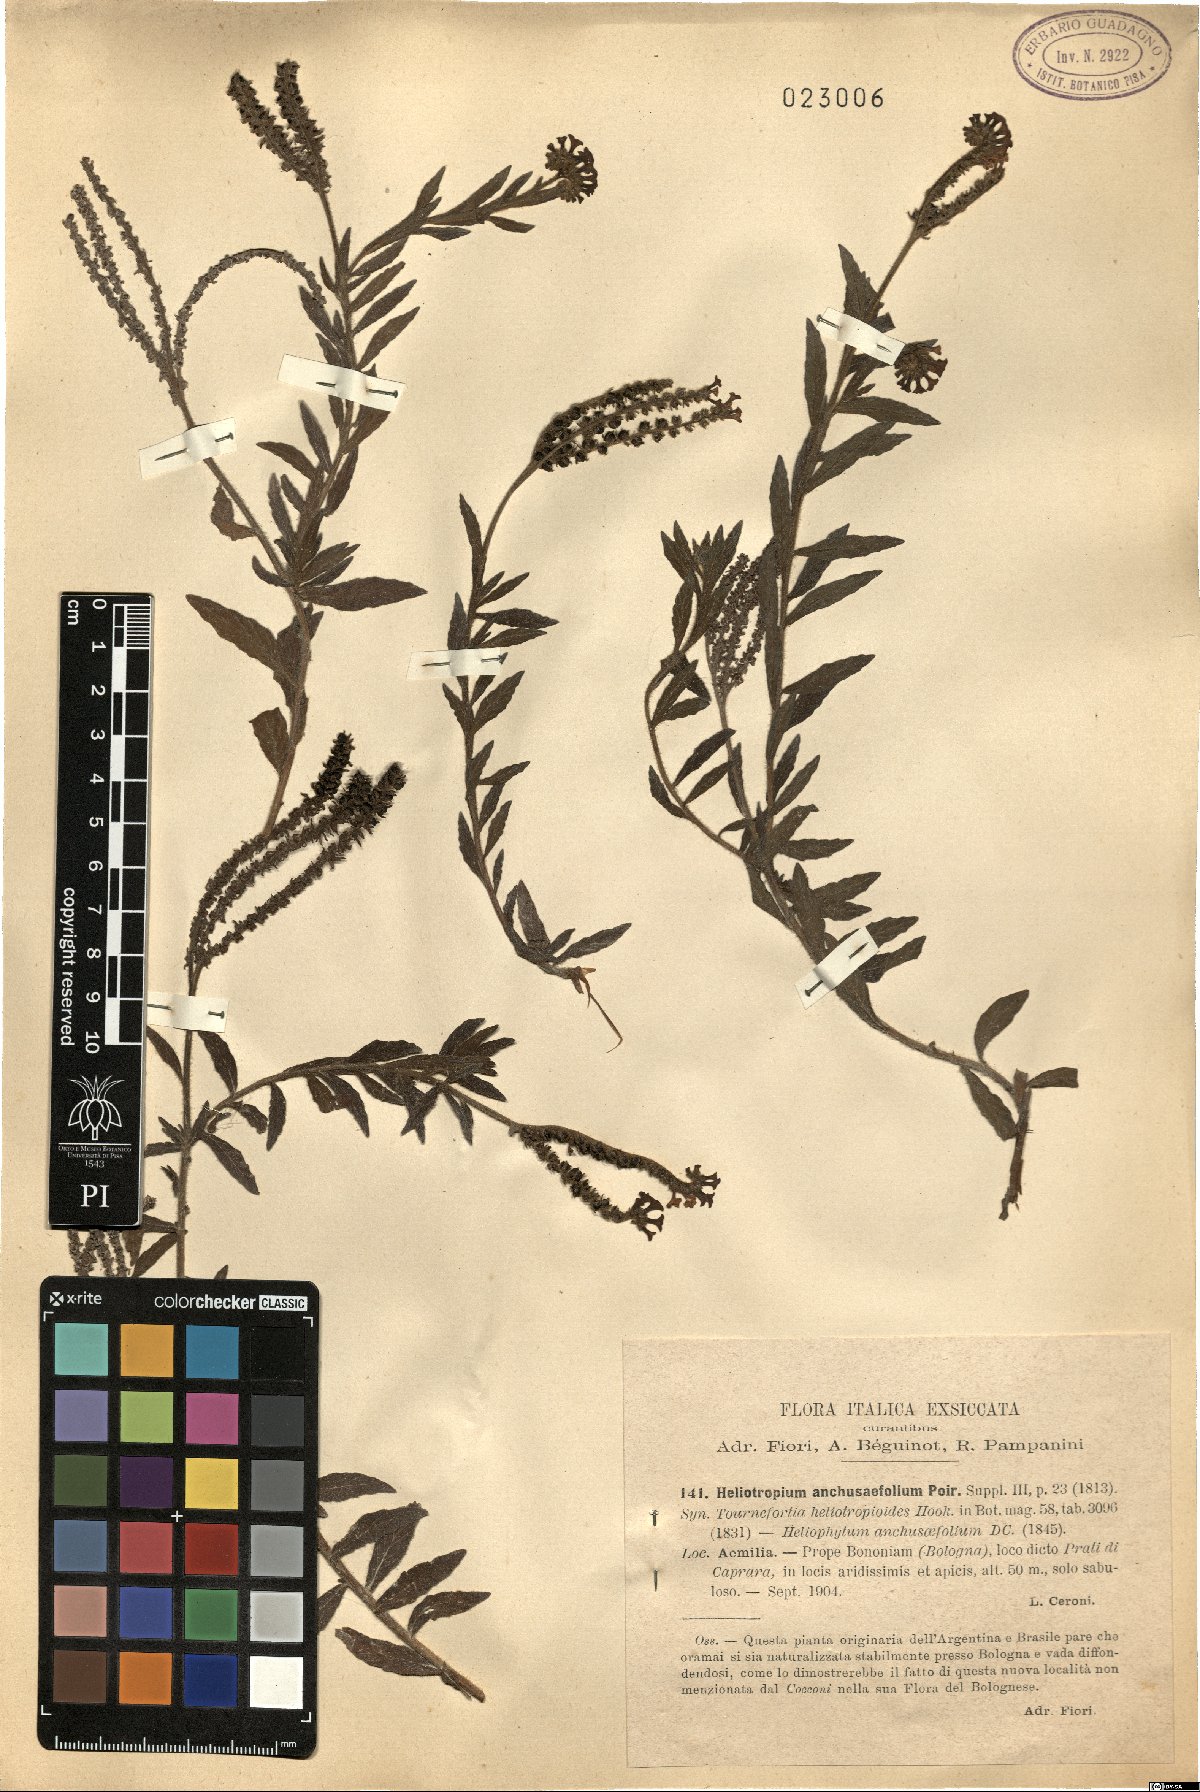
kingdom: Plantae
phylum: Tracheophyta
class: Magnoliopsida
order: Boraginales
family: Heliotropiaceae
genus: Heliotropium
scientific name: Heliotropium amplexicaule
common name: Clasping heliotrope
